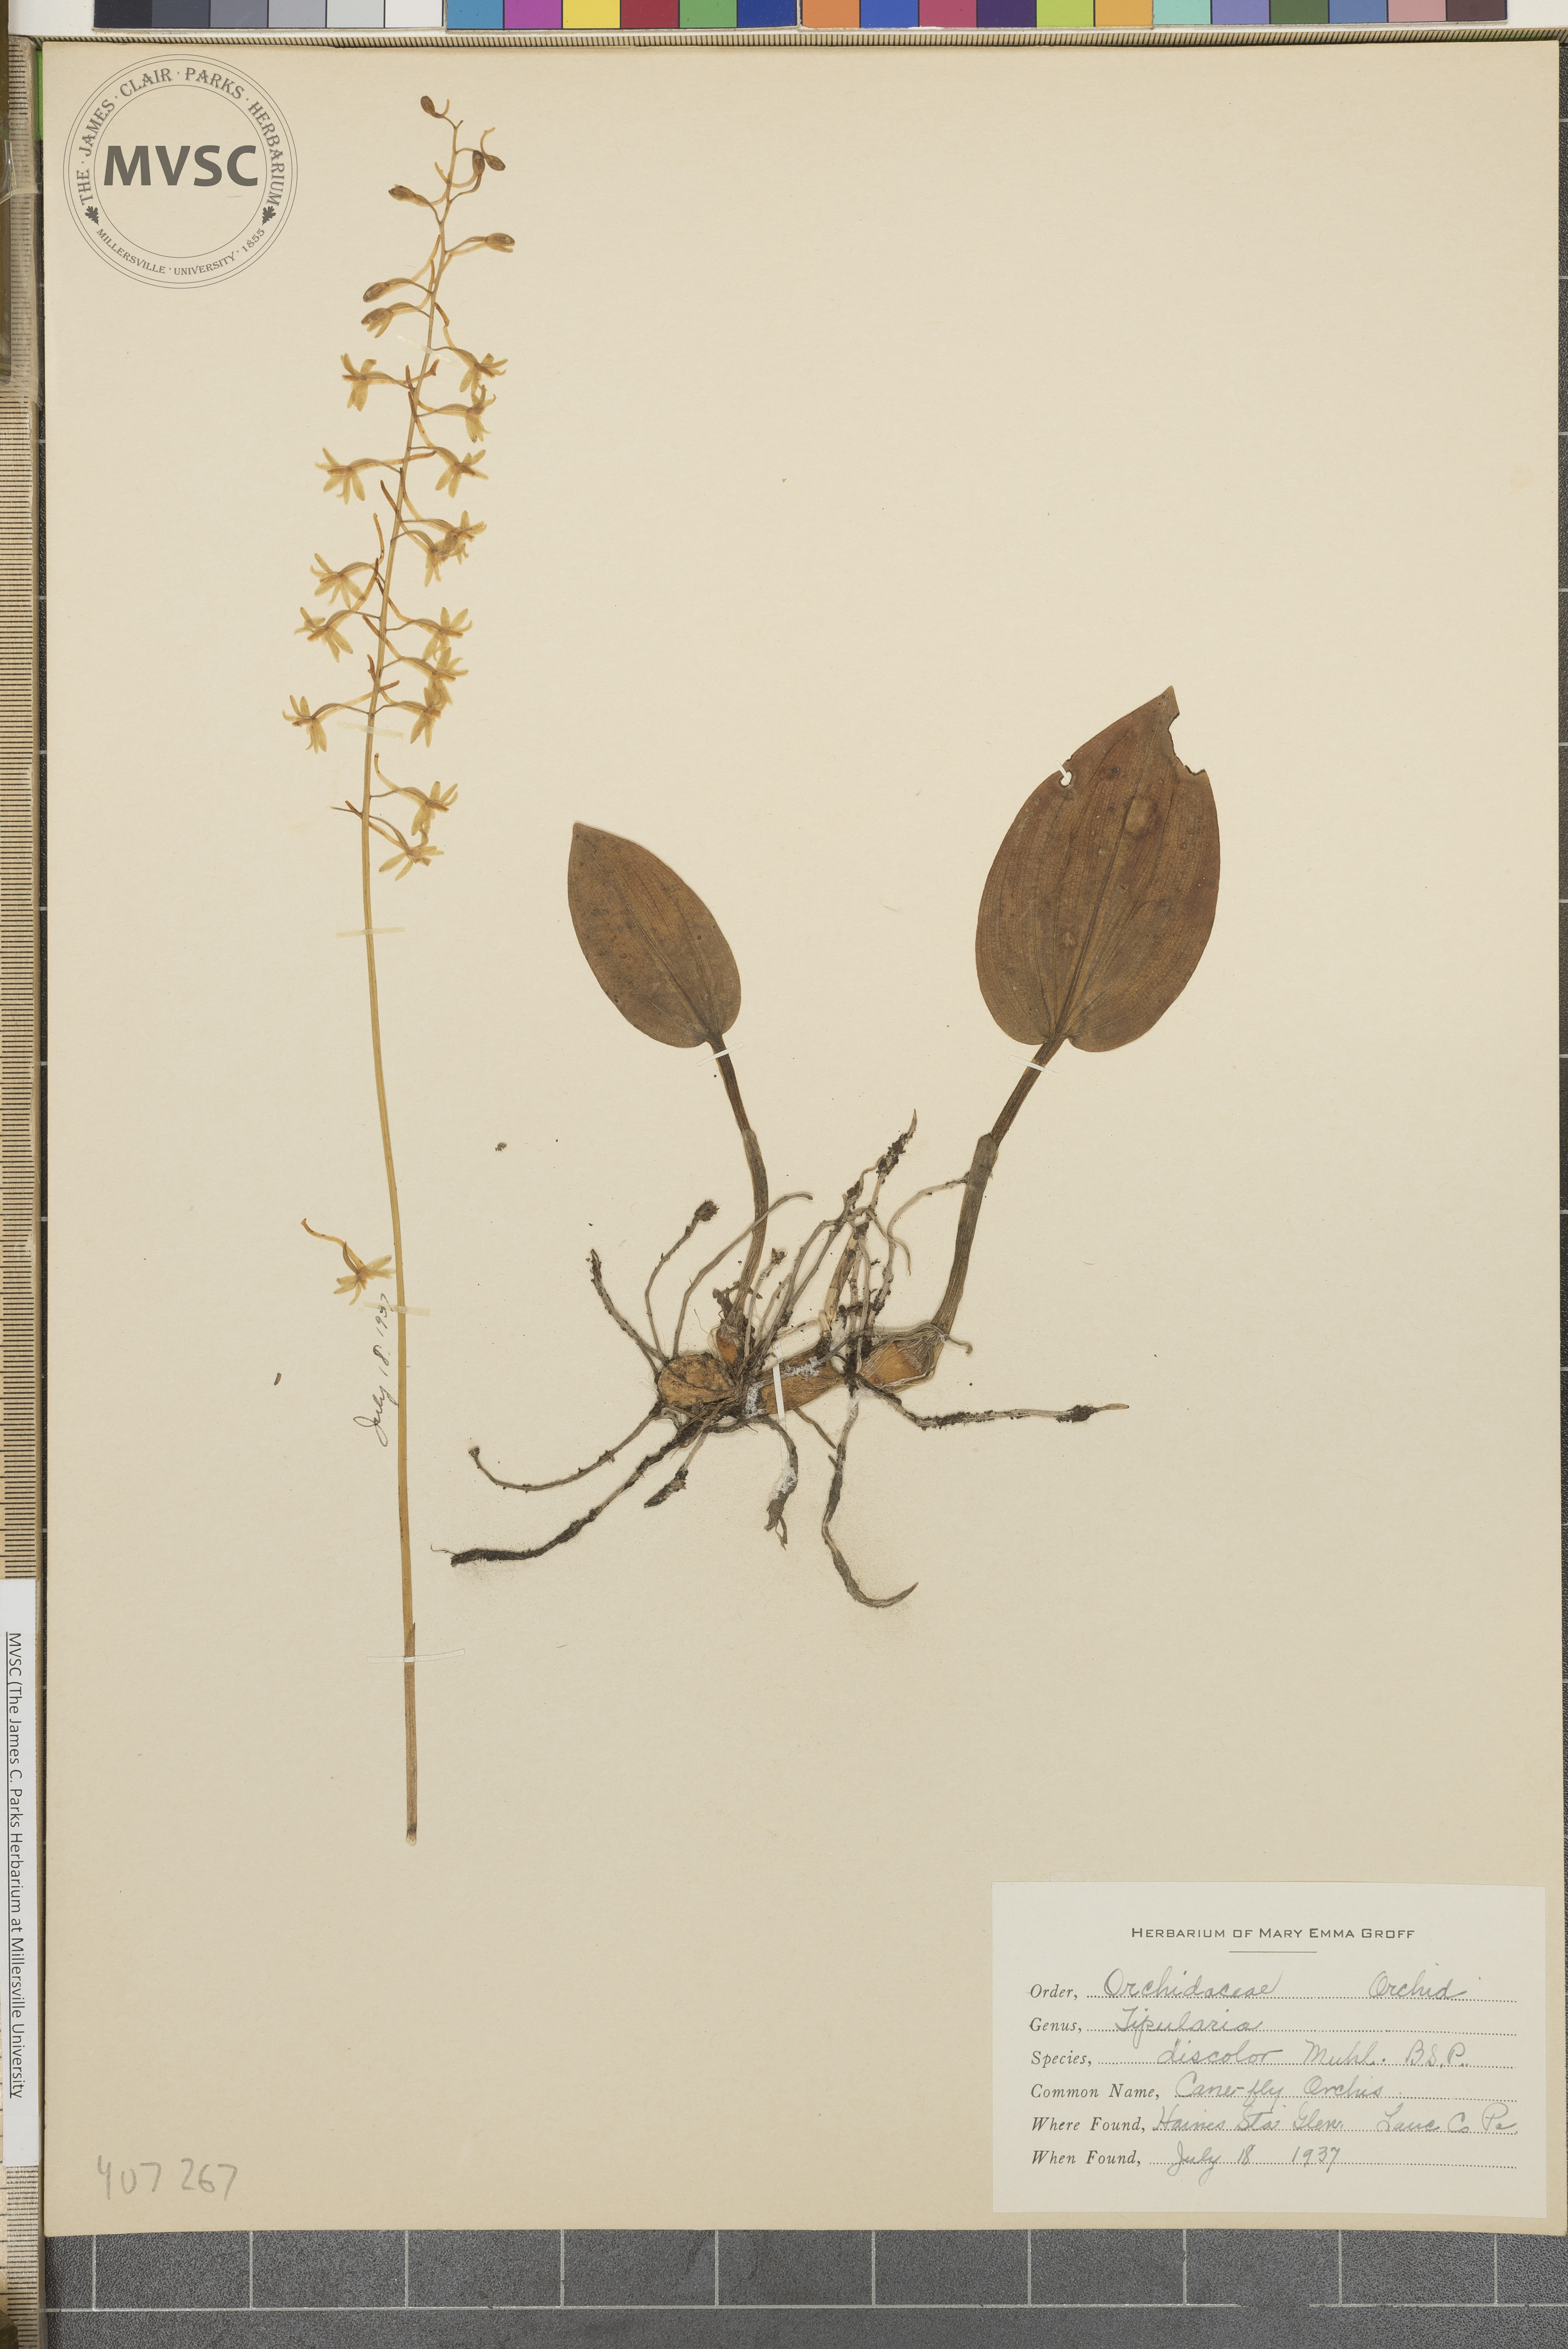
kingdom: Plantae
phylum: Tracheophyta
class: Liliopsida
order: Asparagales
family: Orchidaceae
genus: Tipularia
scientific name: Tipularia discolor
